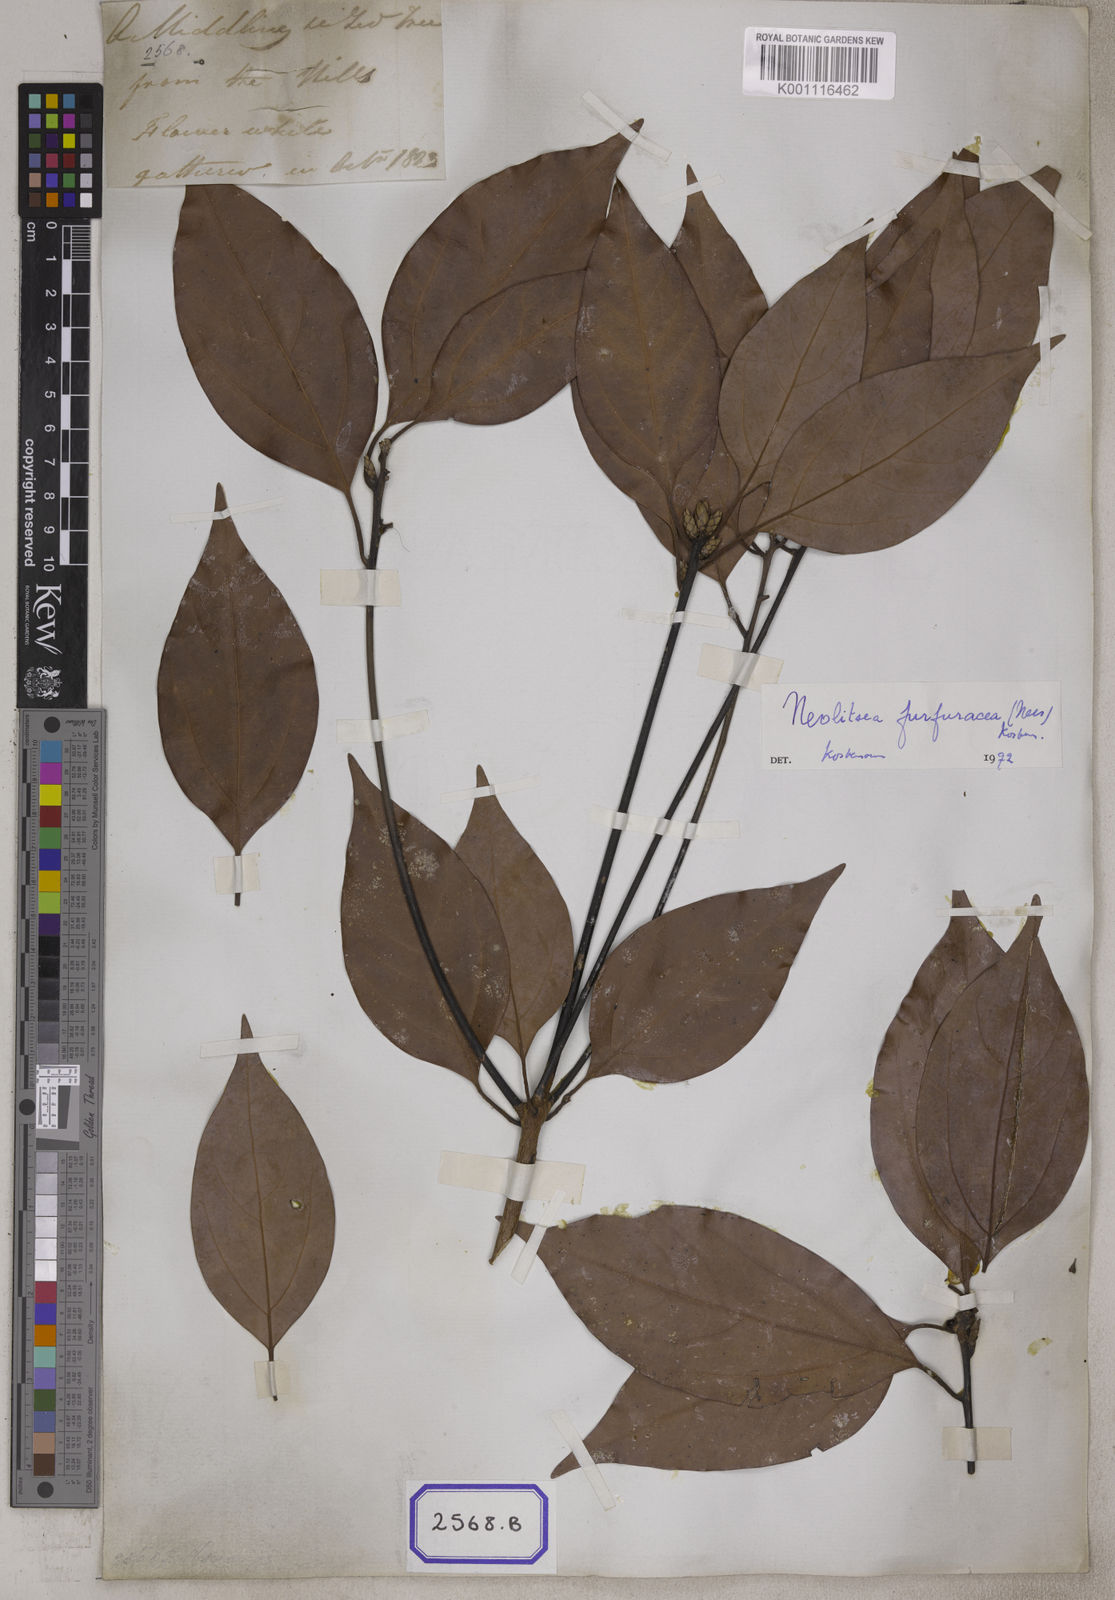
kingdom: Plantae
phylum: Tracheophyta
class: Magnoliopsida
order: Laurales
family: Lauraceae
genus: Neolitsea
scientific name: Neolitsea umbrosa
